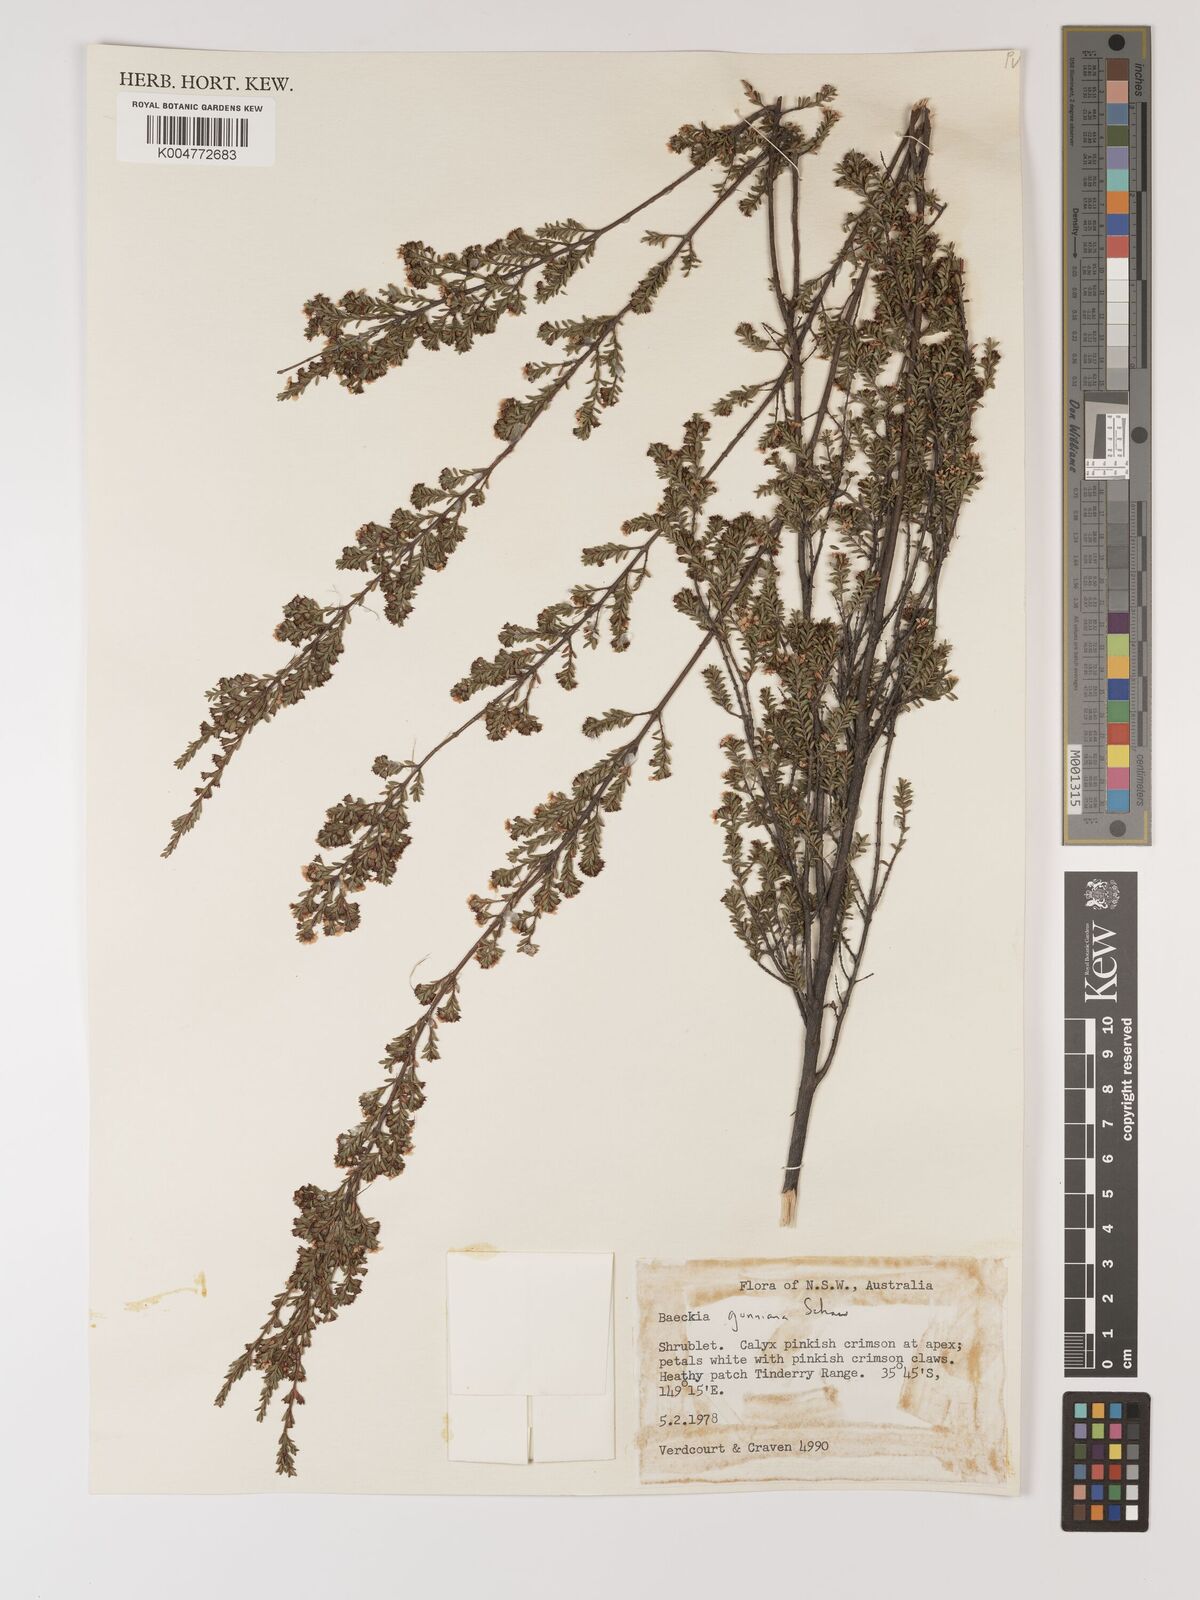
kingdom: Plantae
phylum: Tracheophyta
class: Magnoliopsida
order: Myrtales
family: Myrtaceae
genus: Baeckea
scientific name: Baeckea gunniana
